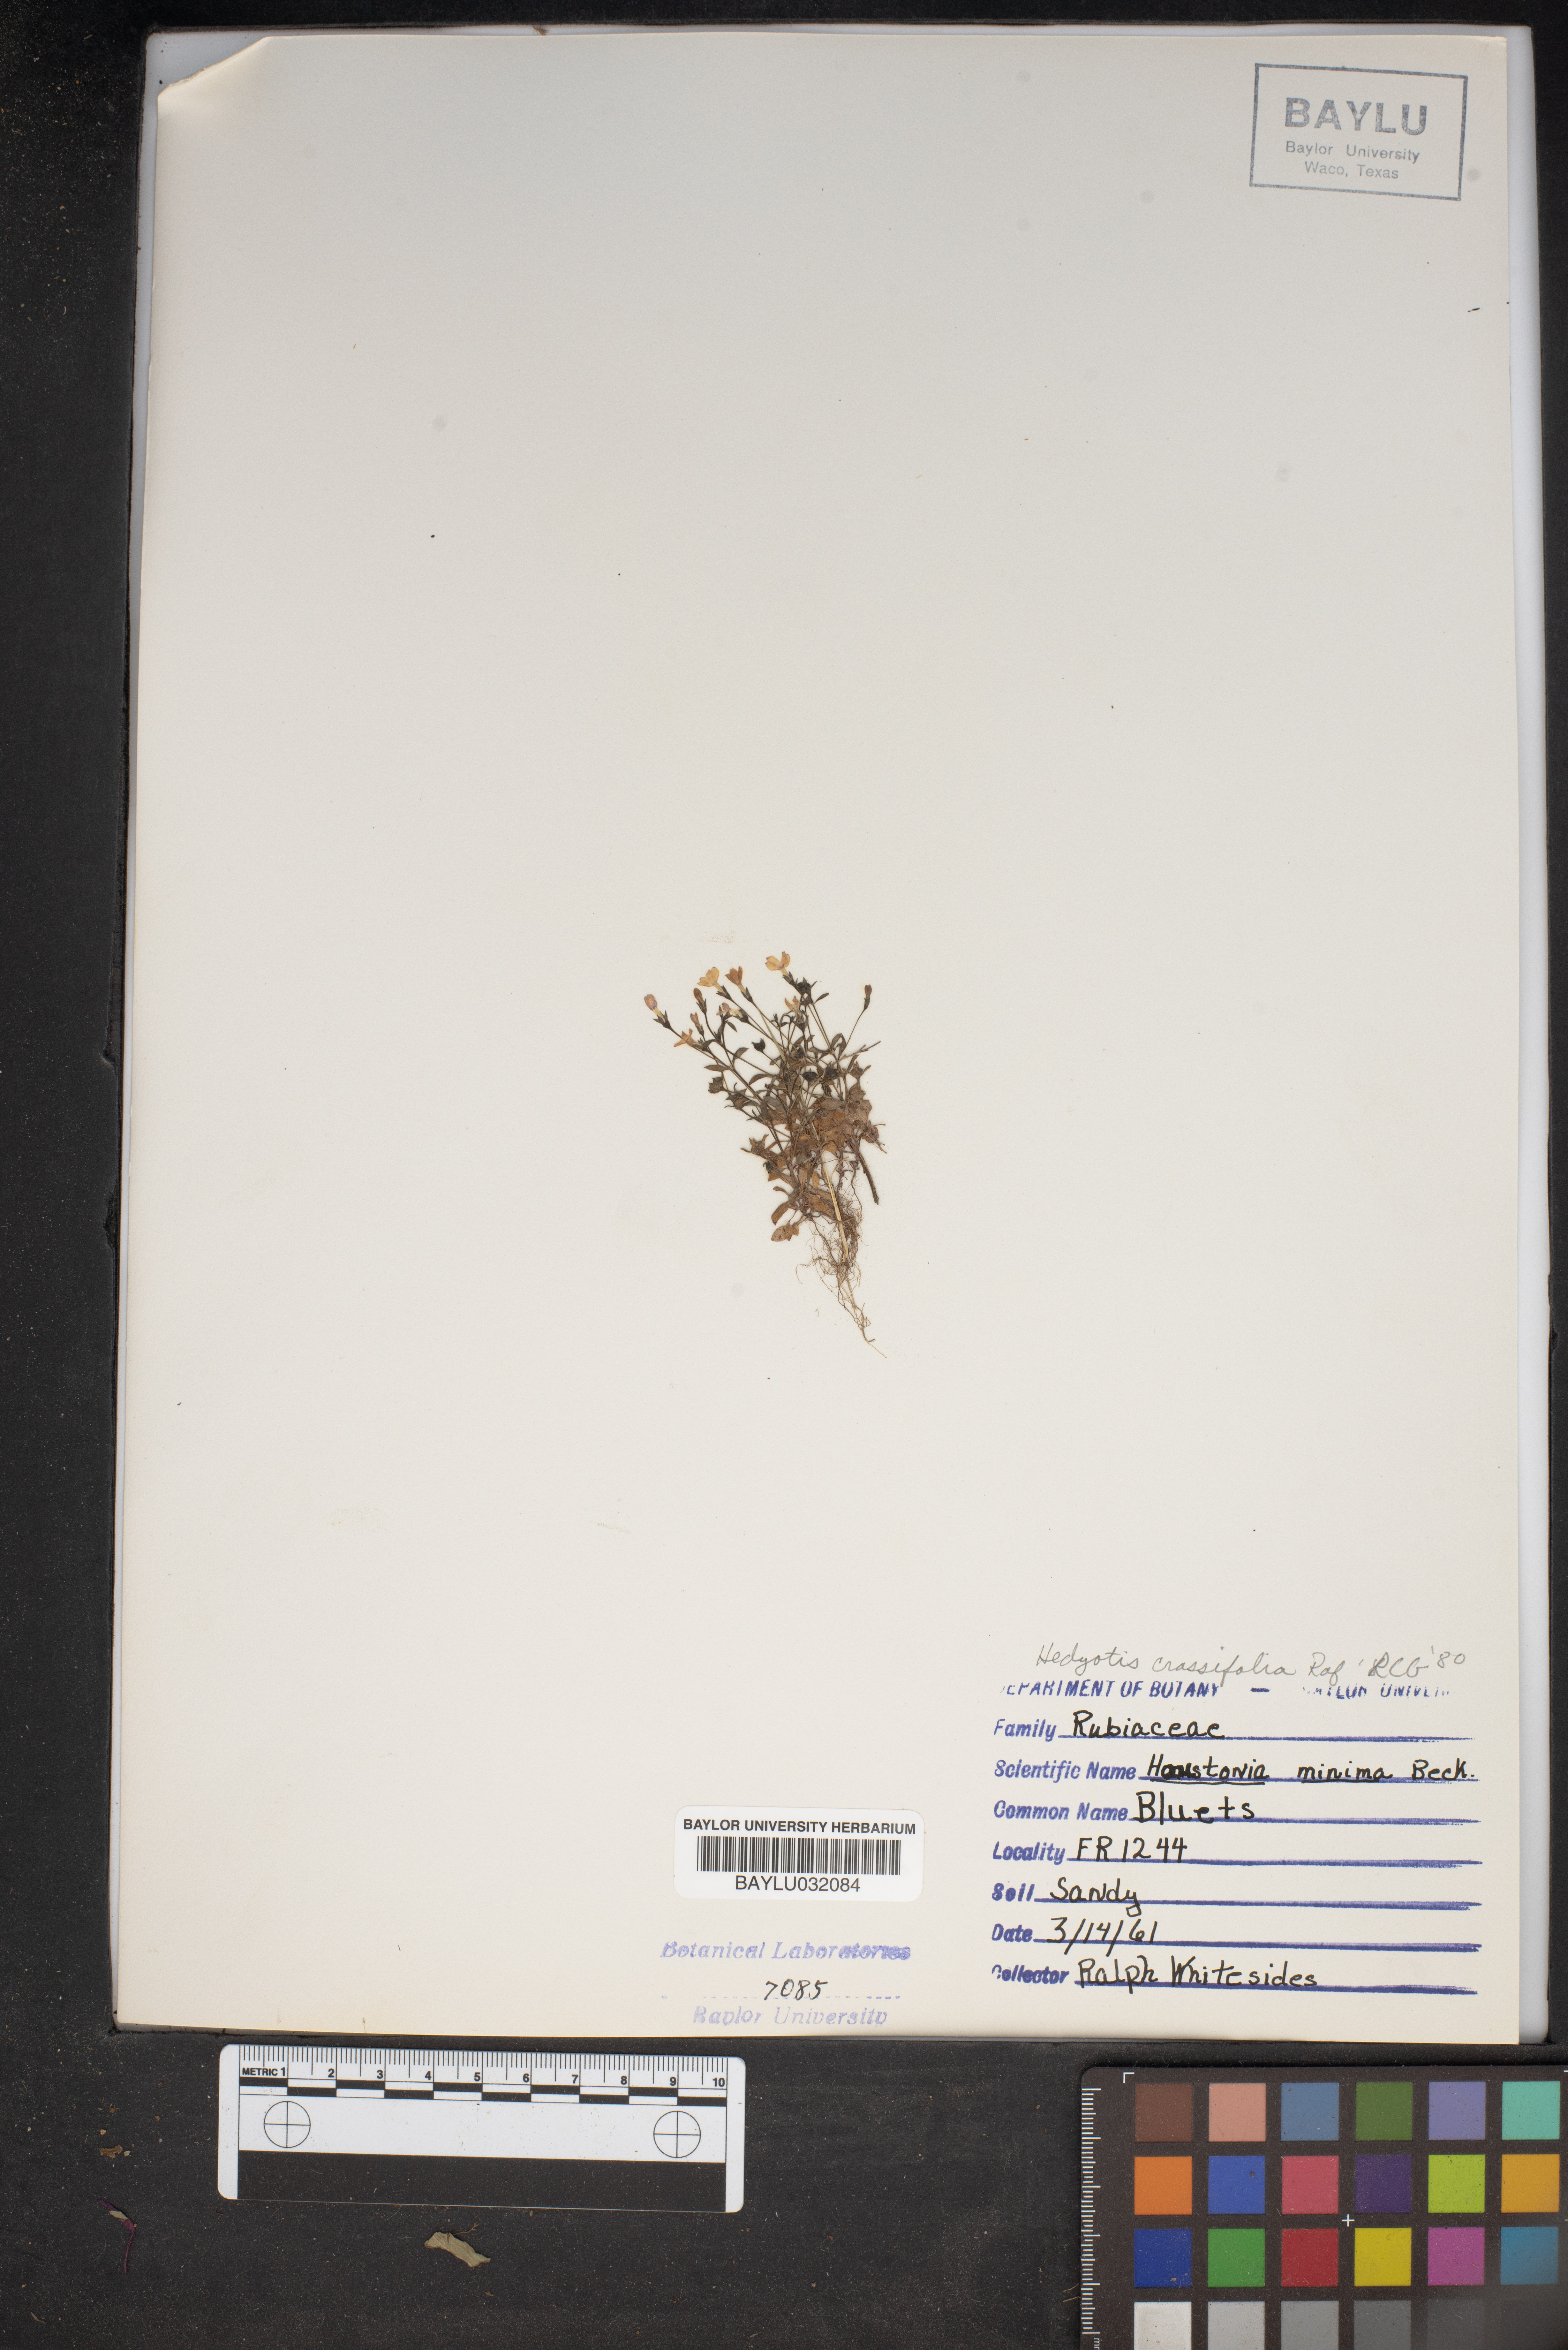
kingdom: Plantae
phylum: Tracheophyta
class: Magnoliopsida
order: Gentianales
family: Rubiaceae
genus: Houstonia
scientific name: Houstonia pusilla
